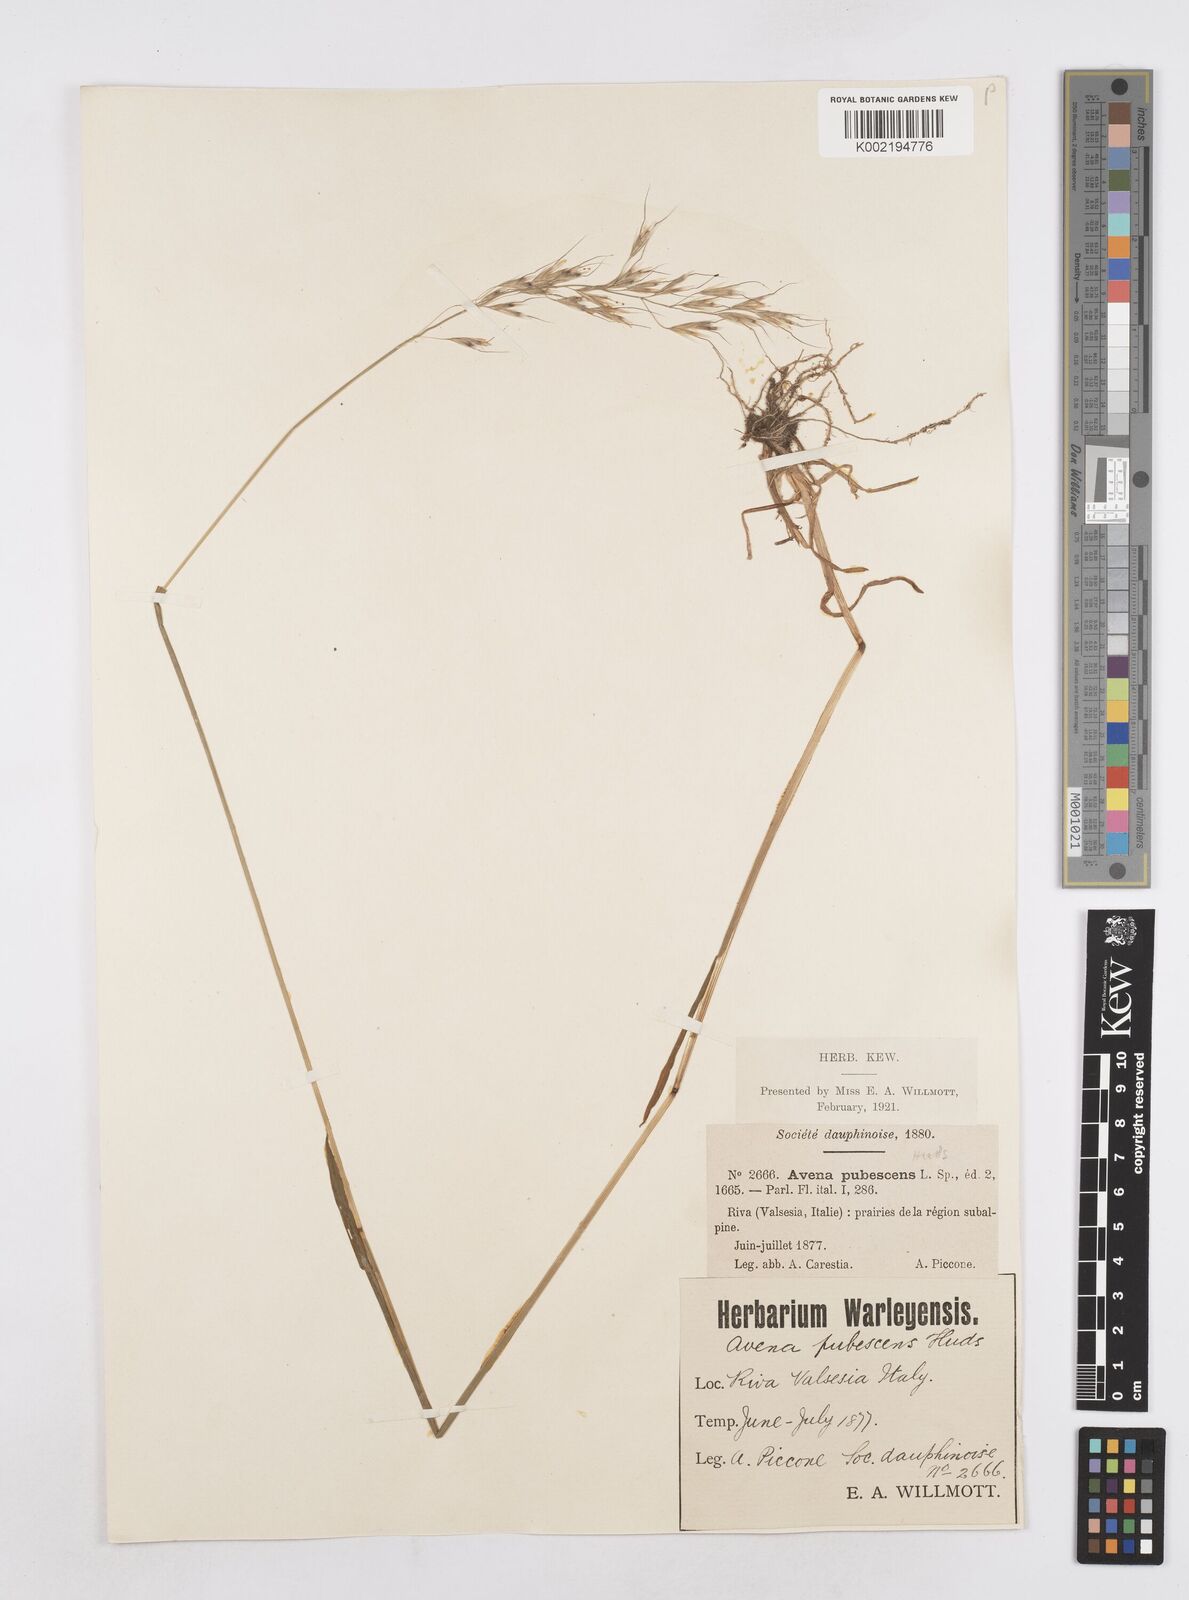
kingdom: Plantae
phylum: Tracheophyta
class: Liliopsida
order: Poales
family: Poaceae
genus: Avenula
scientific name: Avenula pubescens
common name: Downy alpine oatgrass
